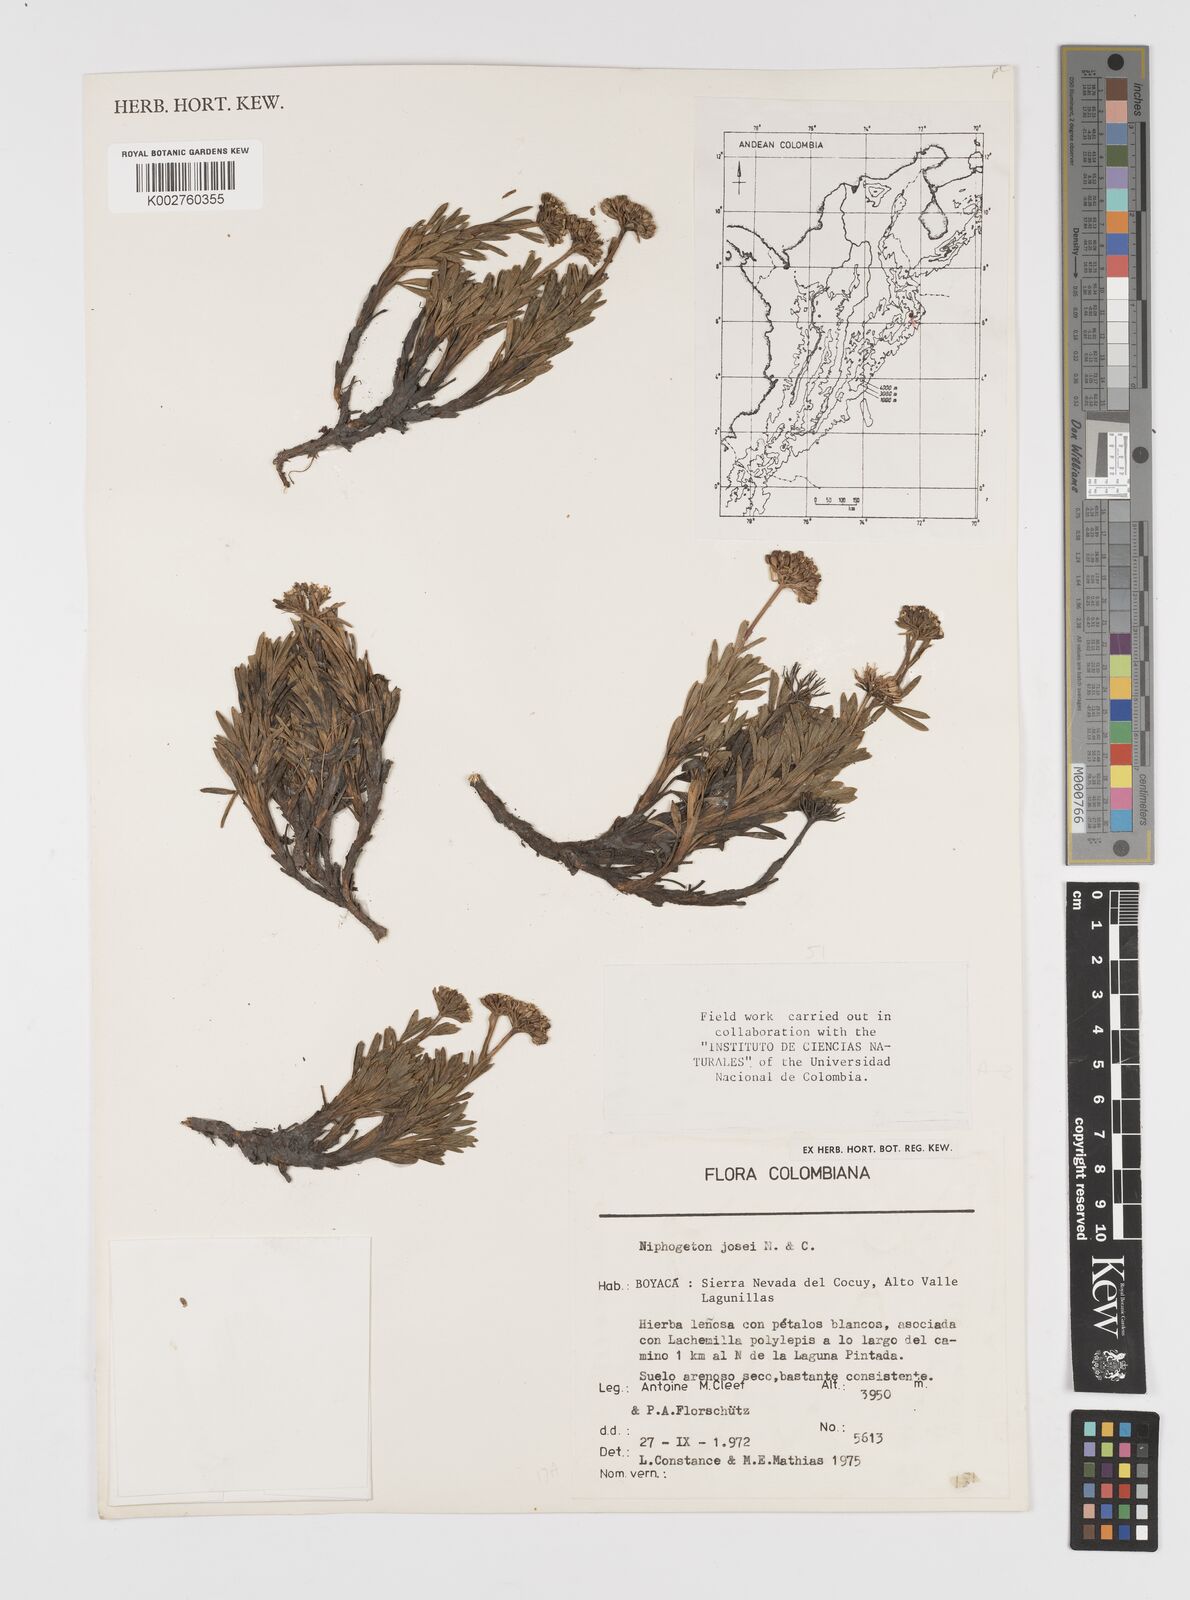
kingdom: Plantae
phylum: Tracheophyta
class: Magnoliopsida
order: Apiales
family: Apiaceae
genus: Niphogeton
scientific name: Niphogeton josei
